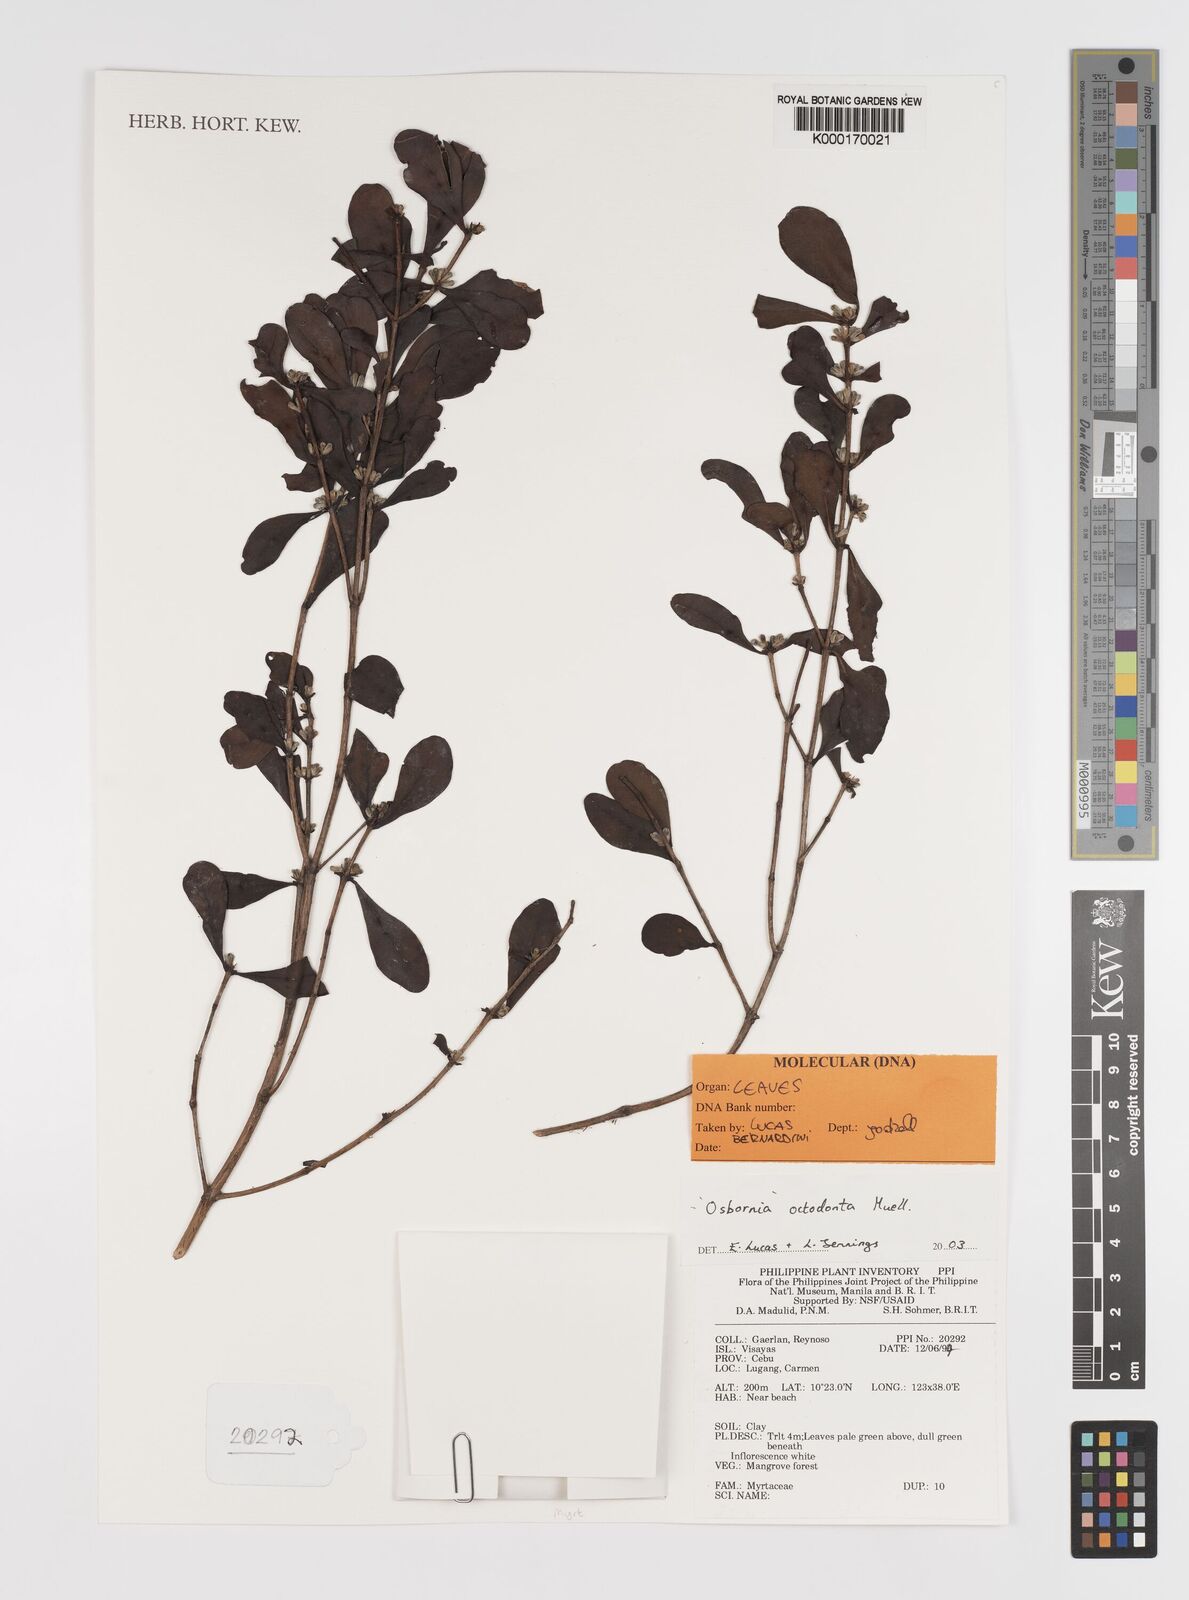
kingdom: Plantae
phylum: Tracheophyta
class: Magnoliopsida
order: Myrtales
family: Myrtaceae
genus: Osbornia
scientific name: Osbornia octodonta
